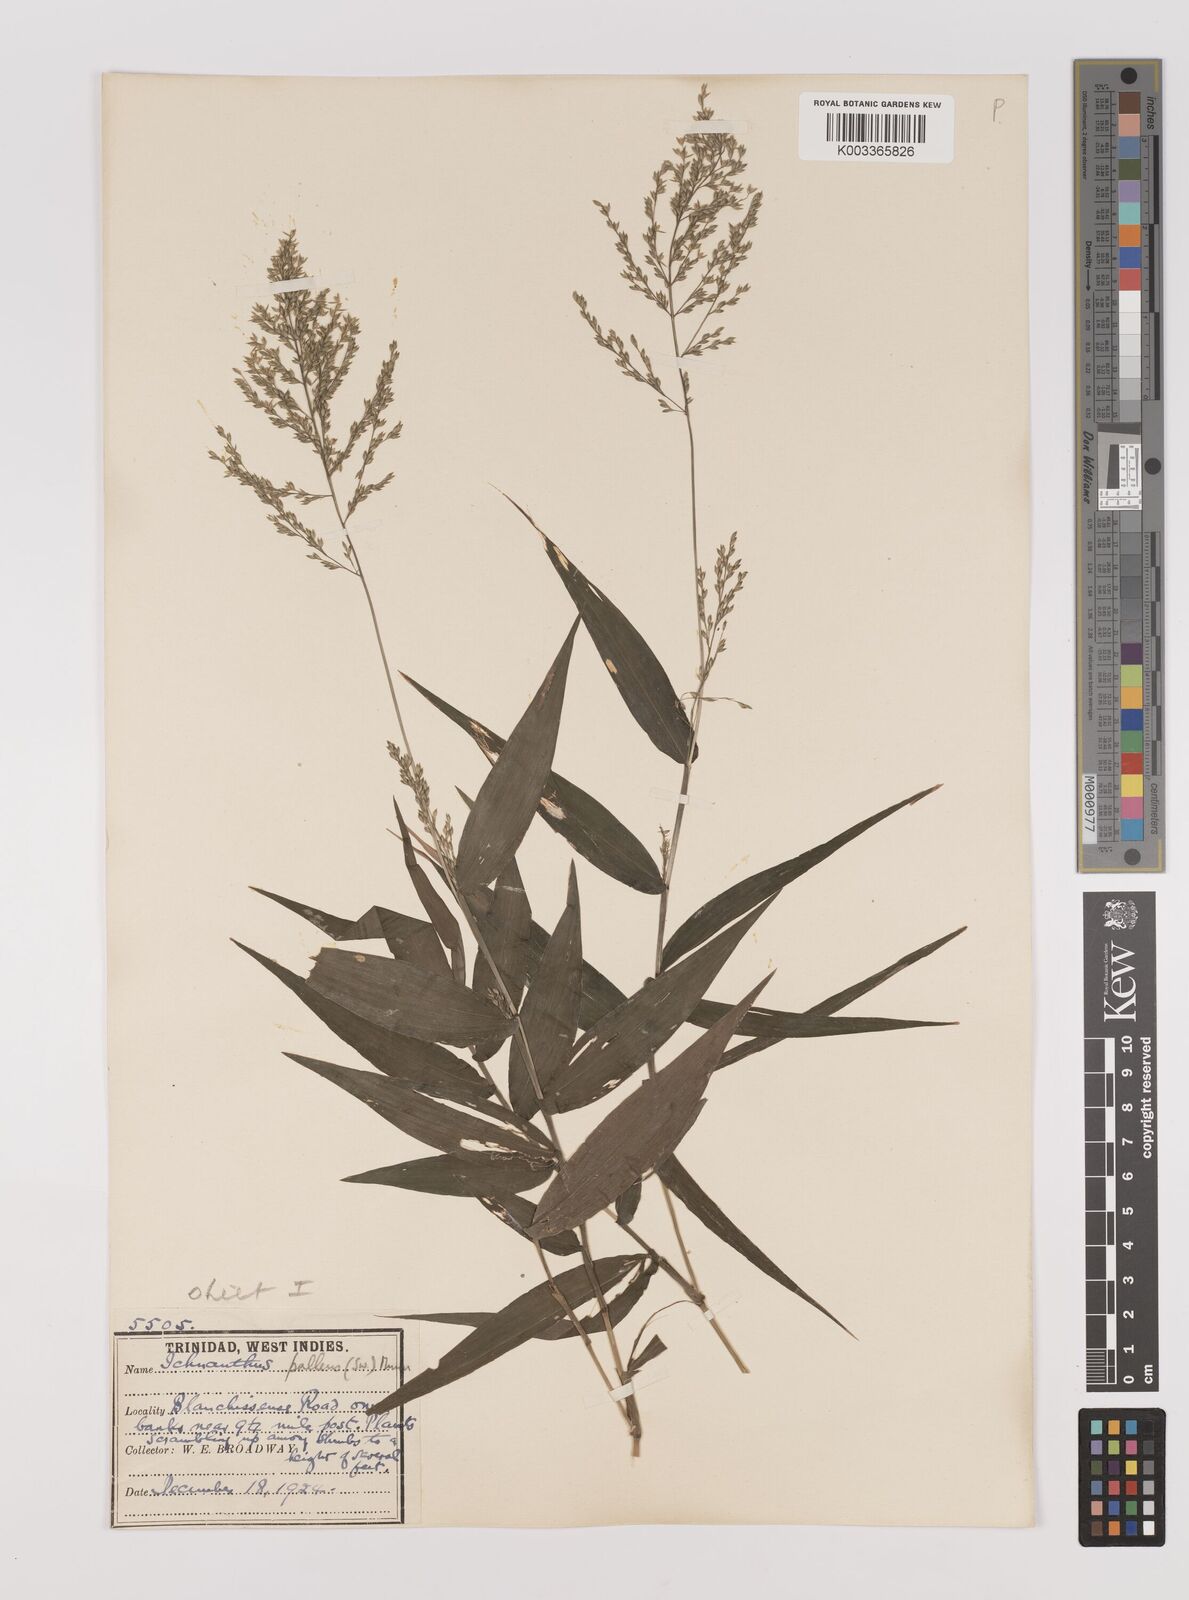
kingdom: Plantae
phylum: Tracheophyta
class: Liliopsida
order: Poales
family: Poaceae
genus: Ichnanthus
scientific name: Ichnanthus pallens
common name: Water grass
